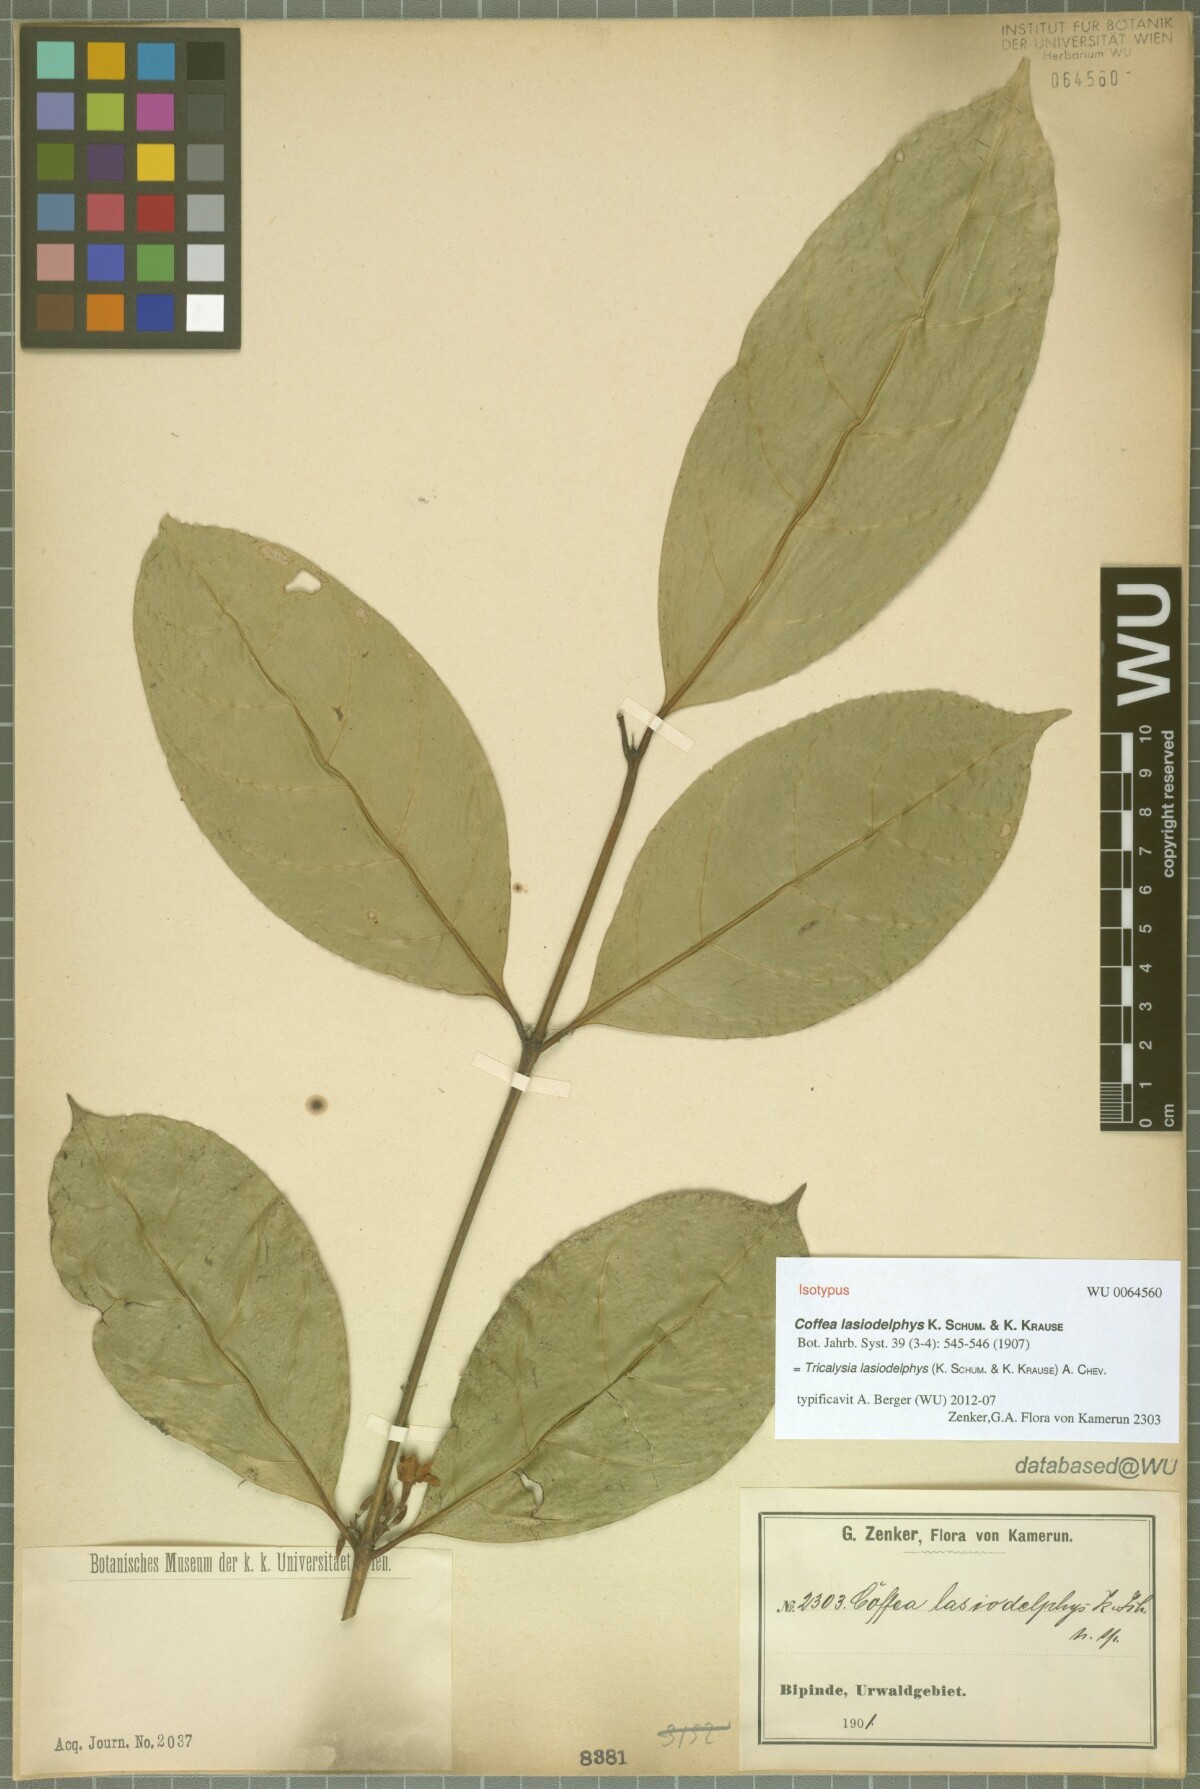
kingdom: Plantae
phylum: Tracheophyta
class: Magnoliopsida
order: Gentianales
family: Rubiaceae
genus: Tricalysia
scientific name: Tricalysia lasiodelphys
